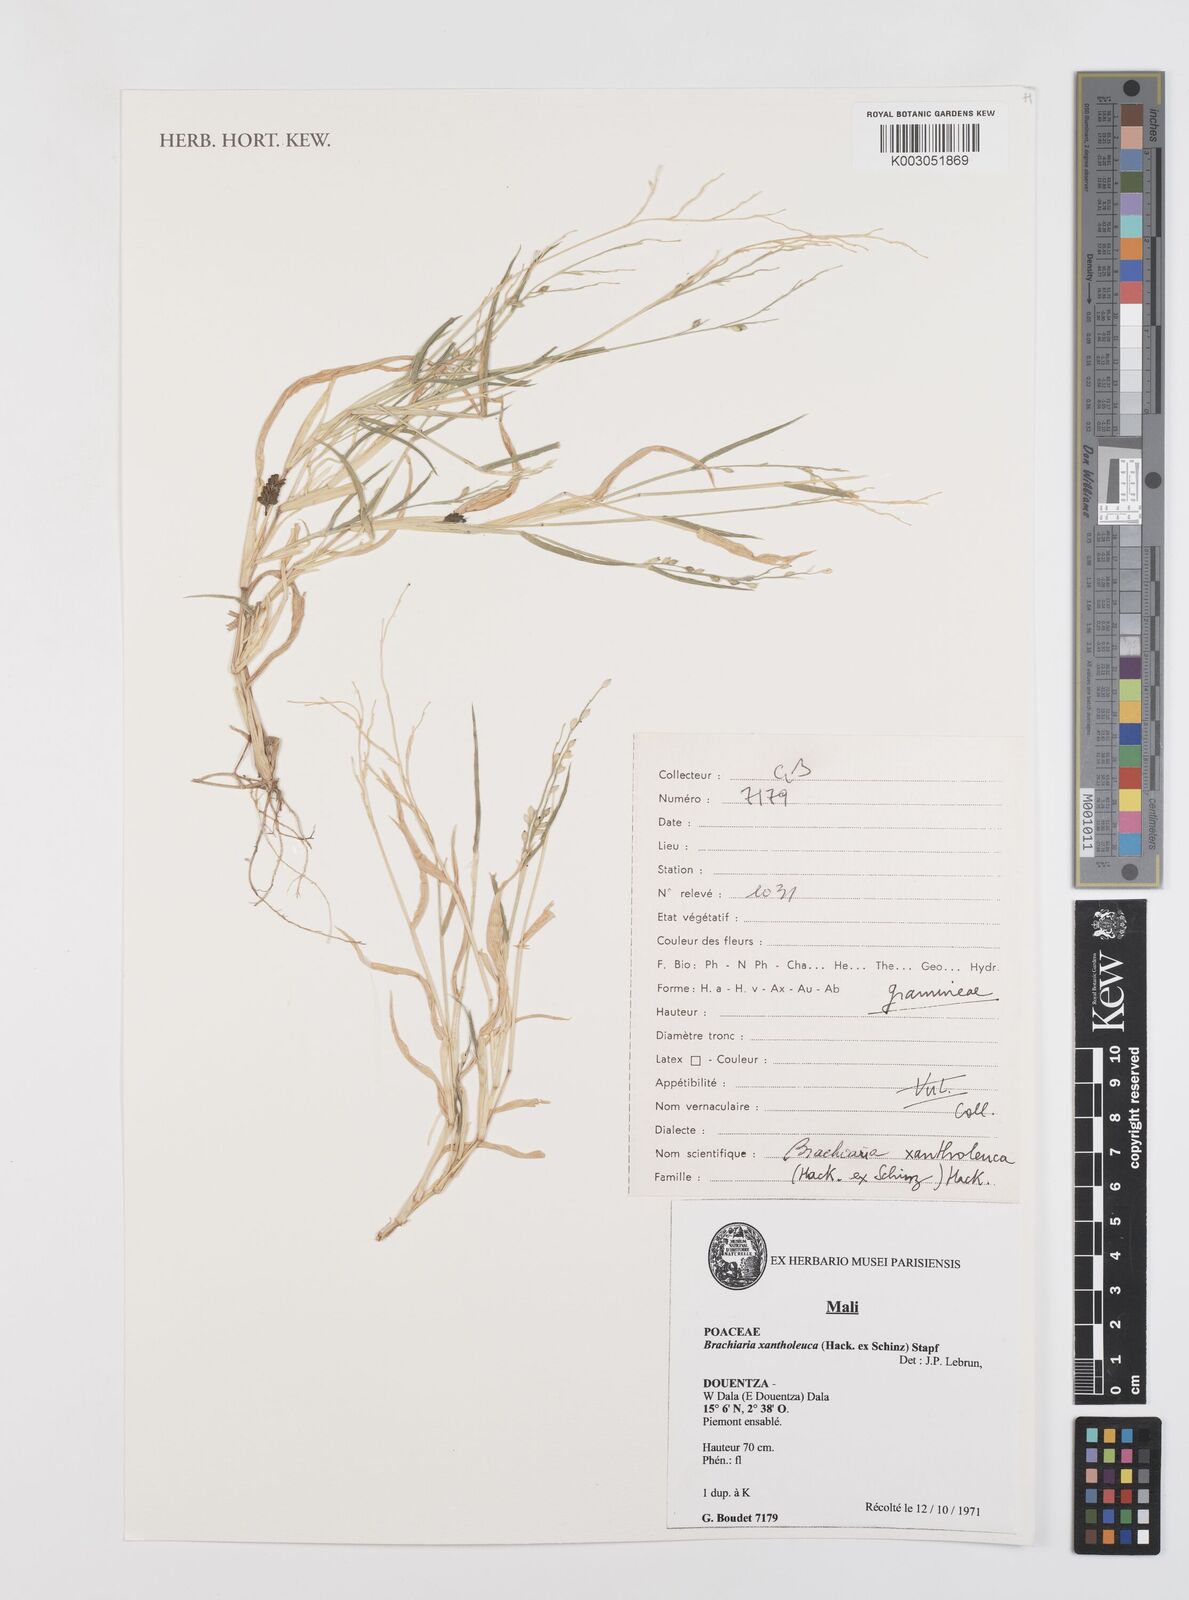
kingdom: Plantae
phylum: Tracheophyta
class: Liliopsida
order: Poales
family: Poaceae
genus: Urochloa
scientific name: Urochloa xantholeuca
